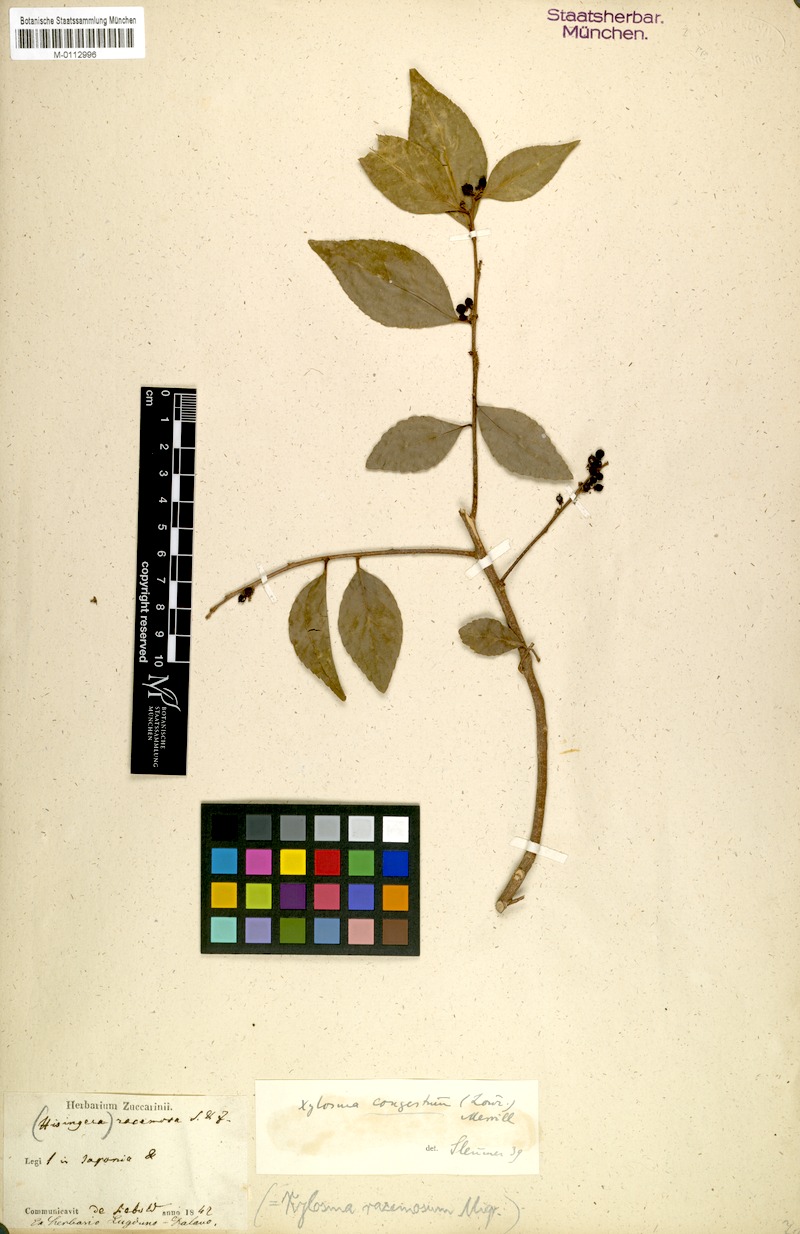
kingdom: Plantae
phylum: Tracheophyta
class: Magnoliopsida
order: Malpighiales
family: Salicaceae
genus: Xylosma
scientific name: Xylosma racemosum
